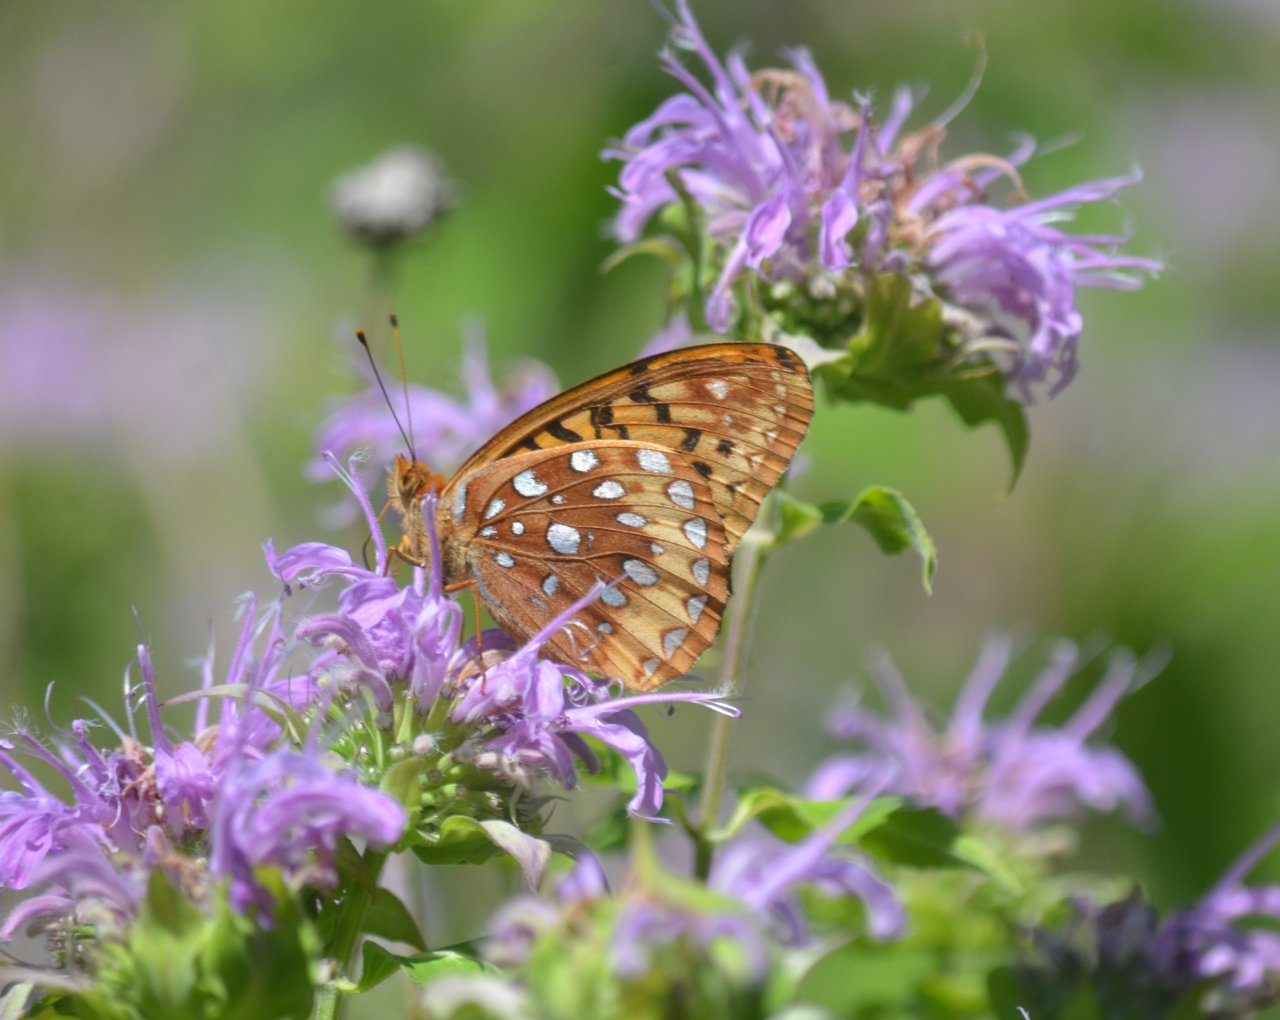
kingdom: Animalia
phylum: Arthropoda
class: Insecta
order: Lepidoptera
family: Nymphalidae
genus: Speyeria
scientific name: Speyeria cybele
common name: Great Spangled Fritillary
